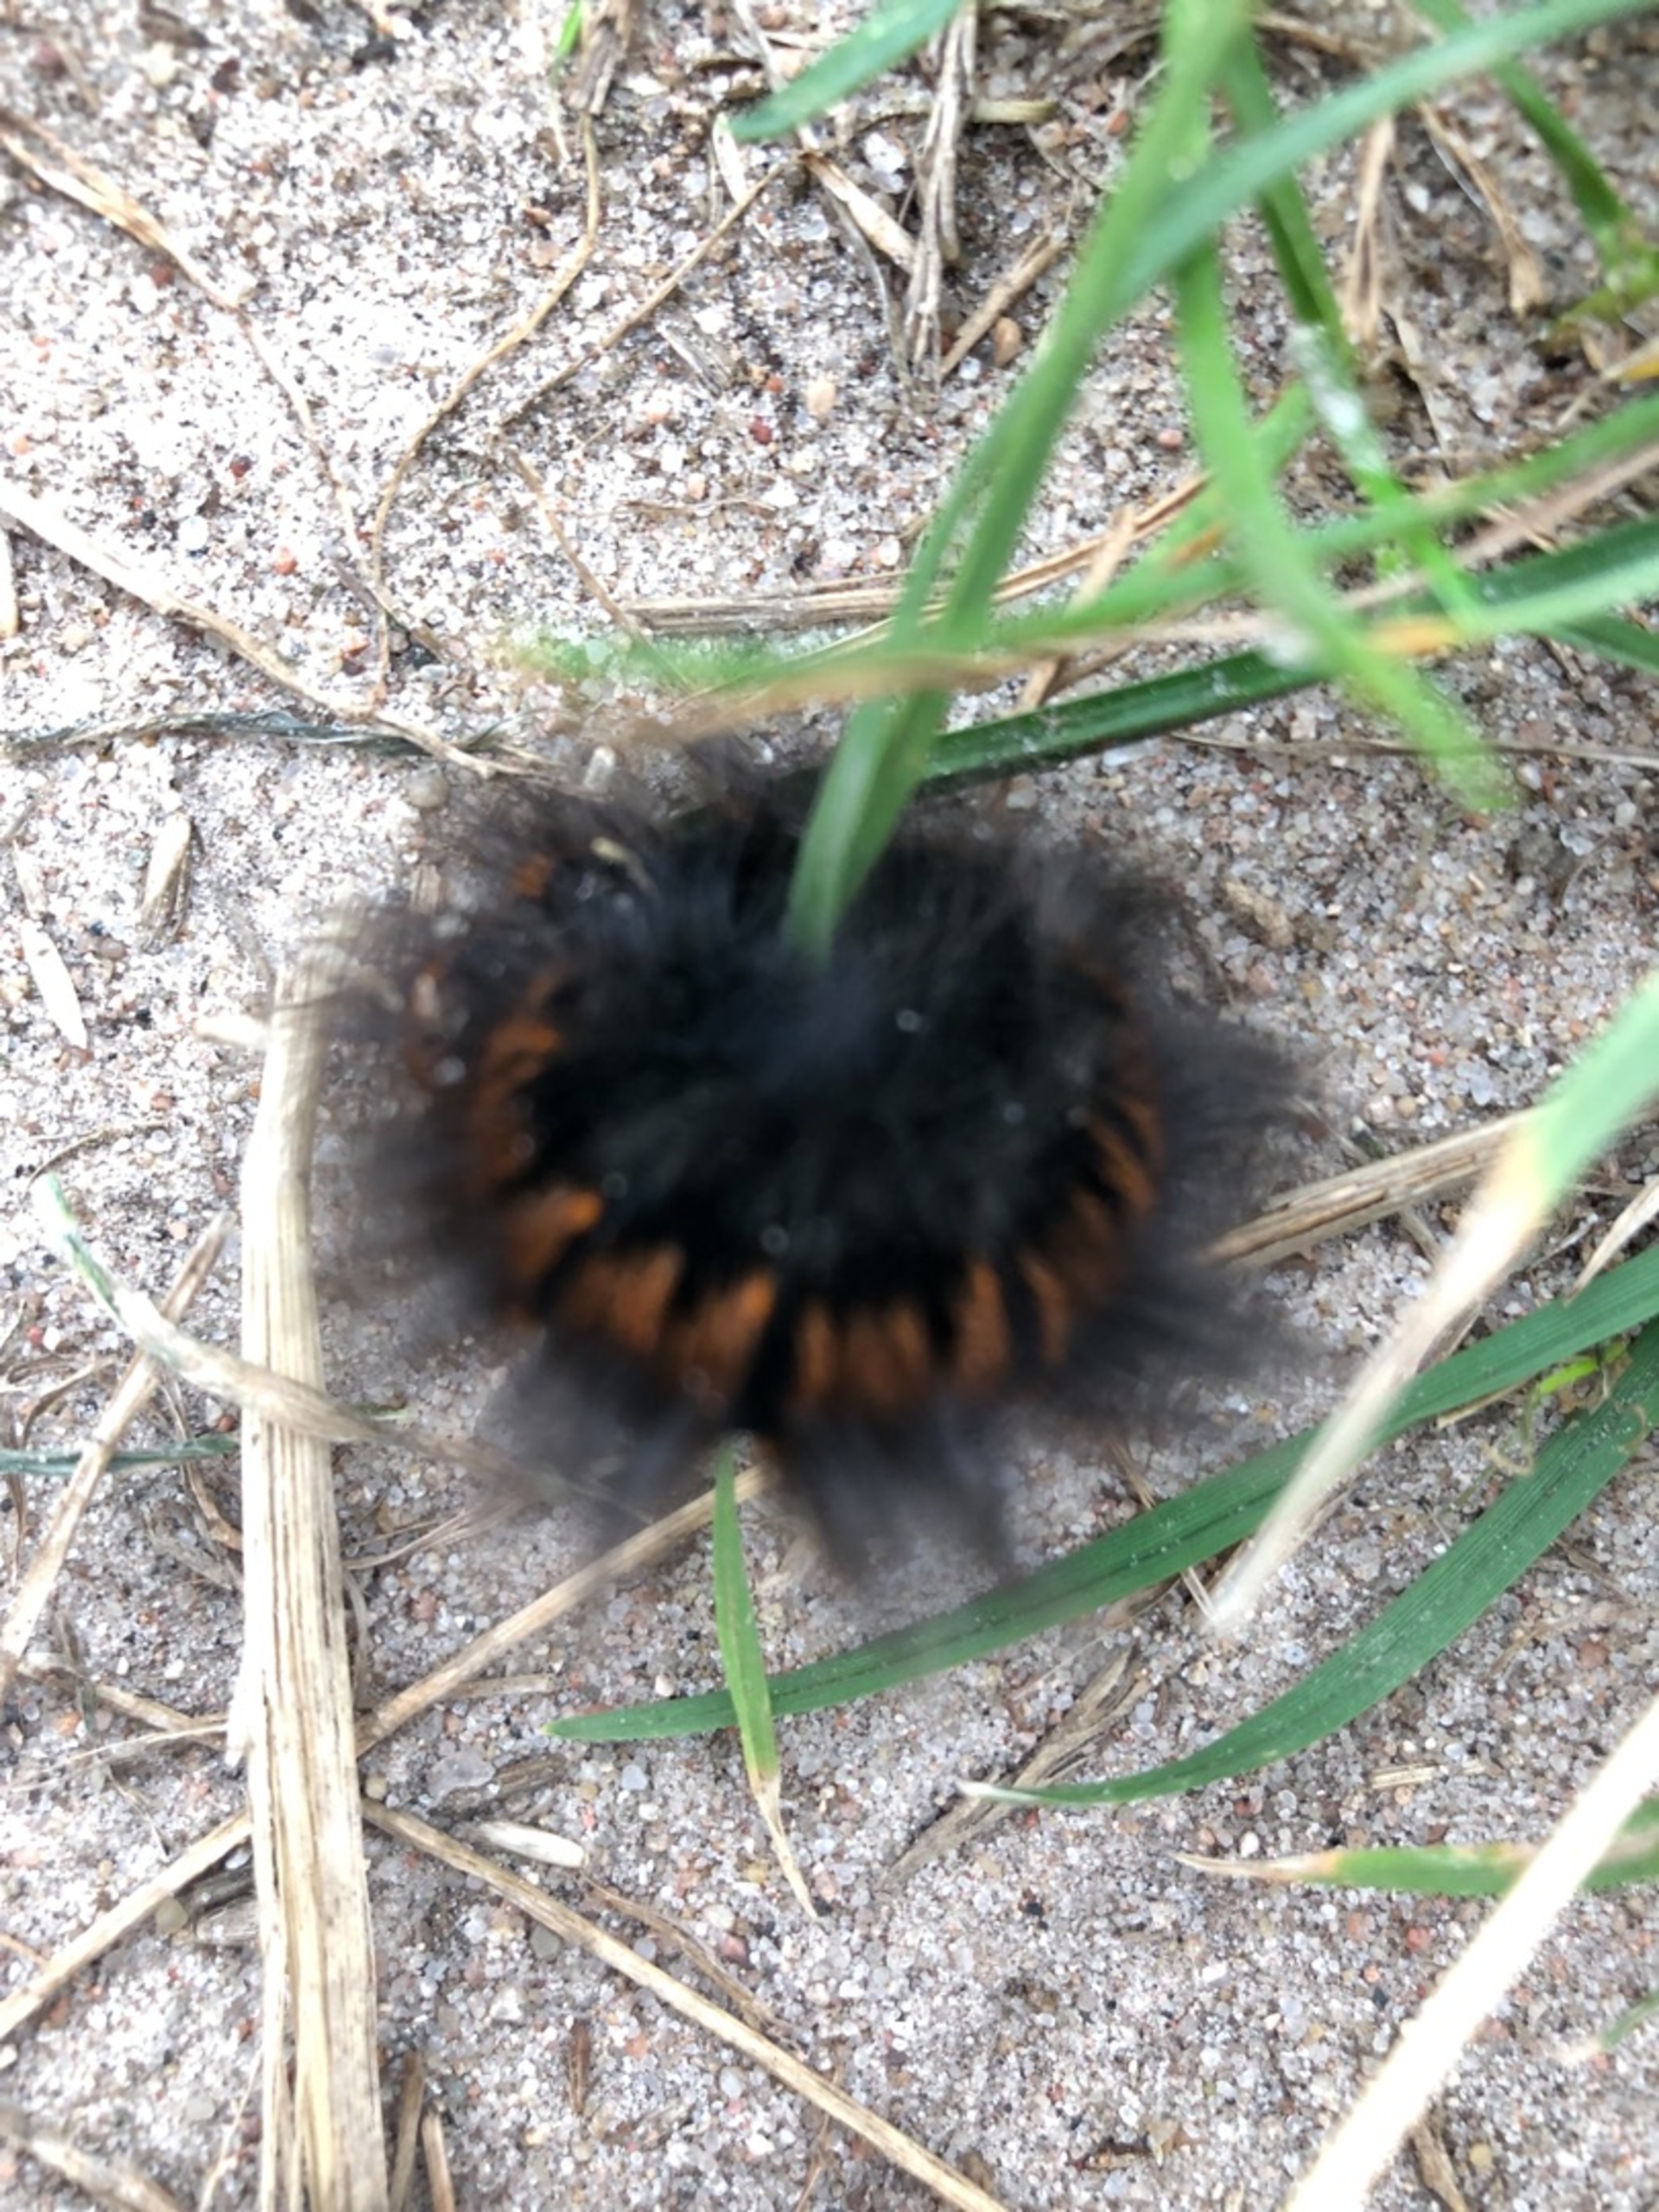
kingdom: Animalia
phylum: Arthropoda
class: Insecta
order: Lepidoptera
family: Lasiocampidae
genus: Macrothylacia
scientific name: Macrothylacia rubi
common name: Brombærspinder
